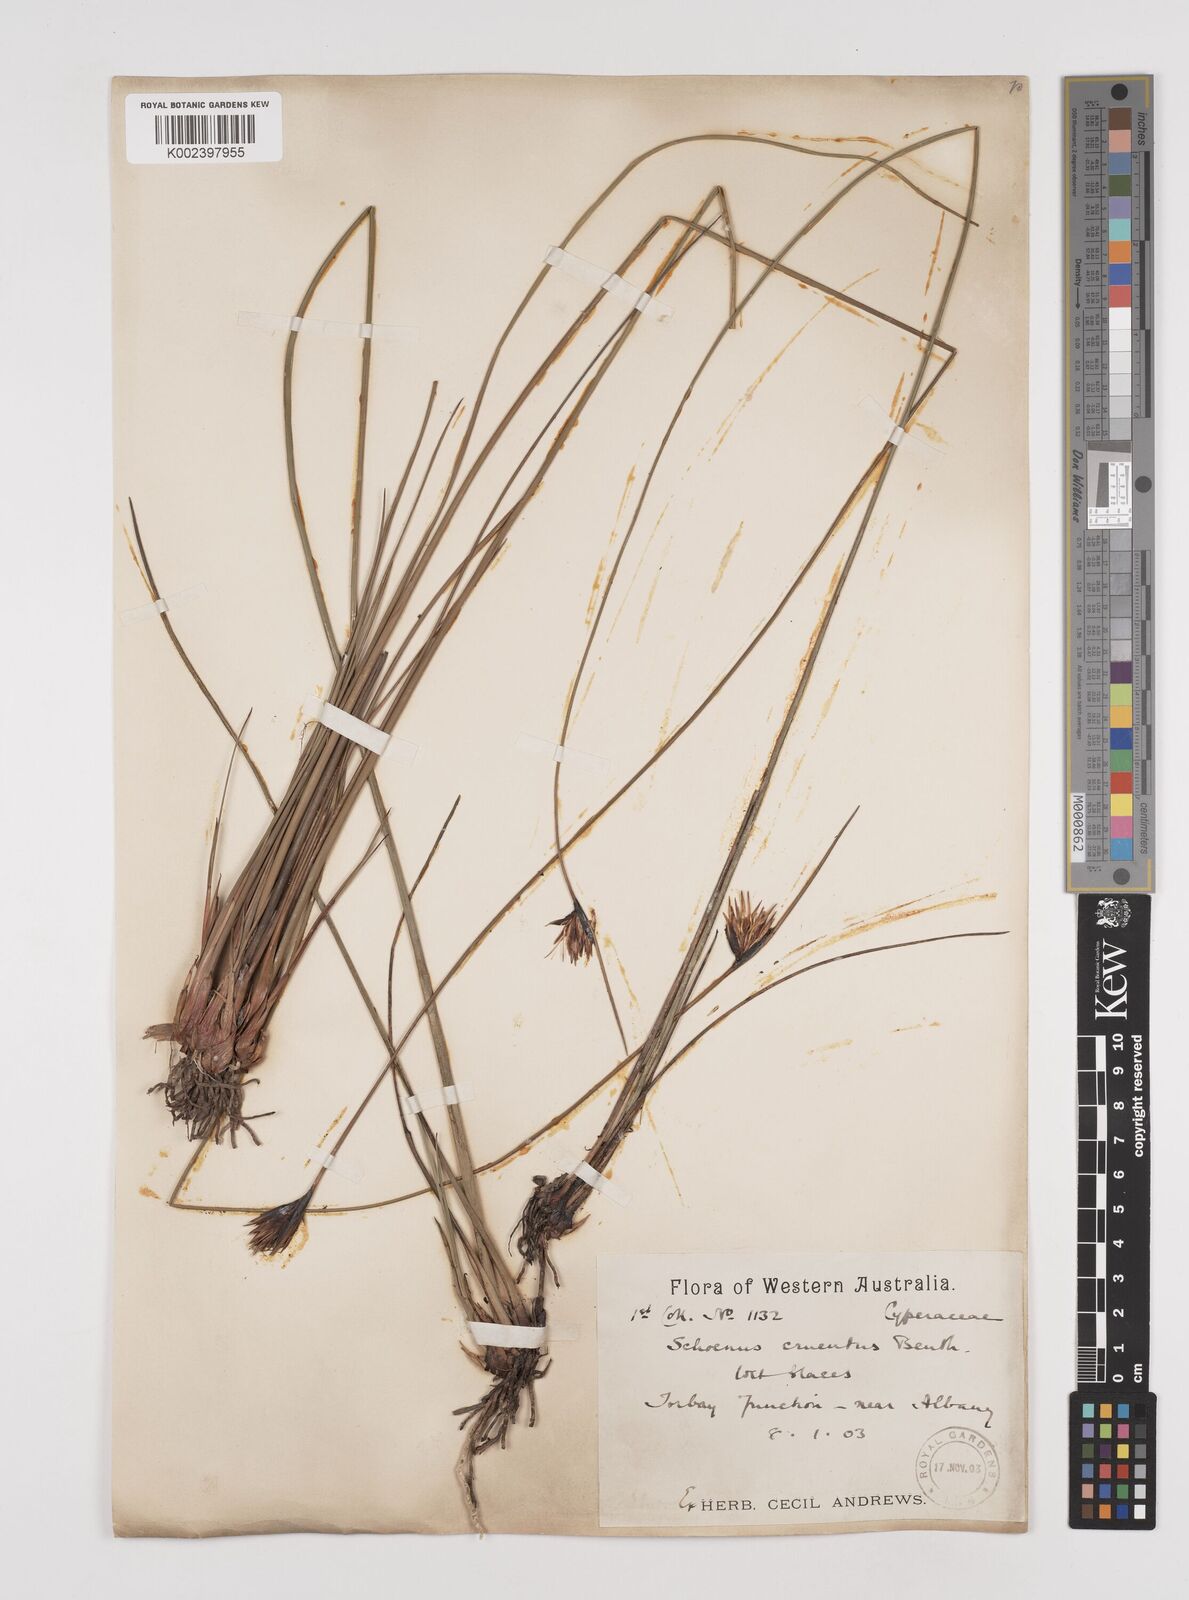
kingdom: Plantae
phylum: Tracheophyta
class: Liliopsida
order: Poales
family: Cyperaceae
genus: Schoenus
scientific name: Schoenus cruentus
